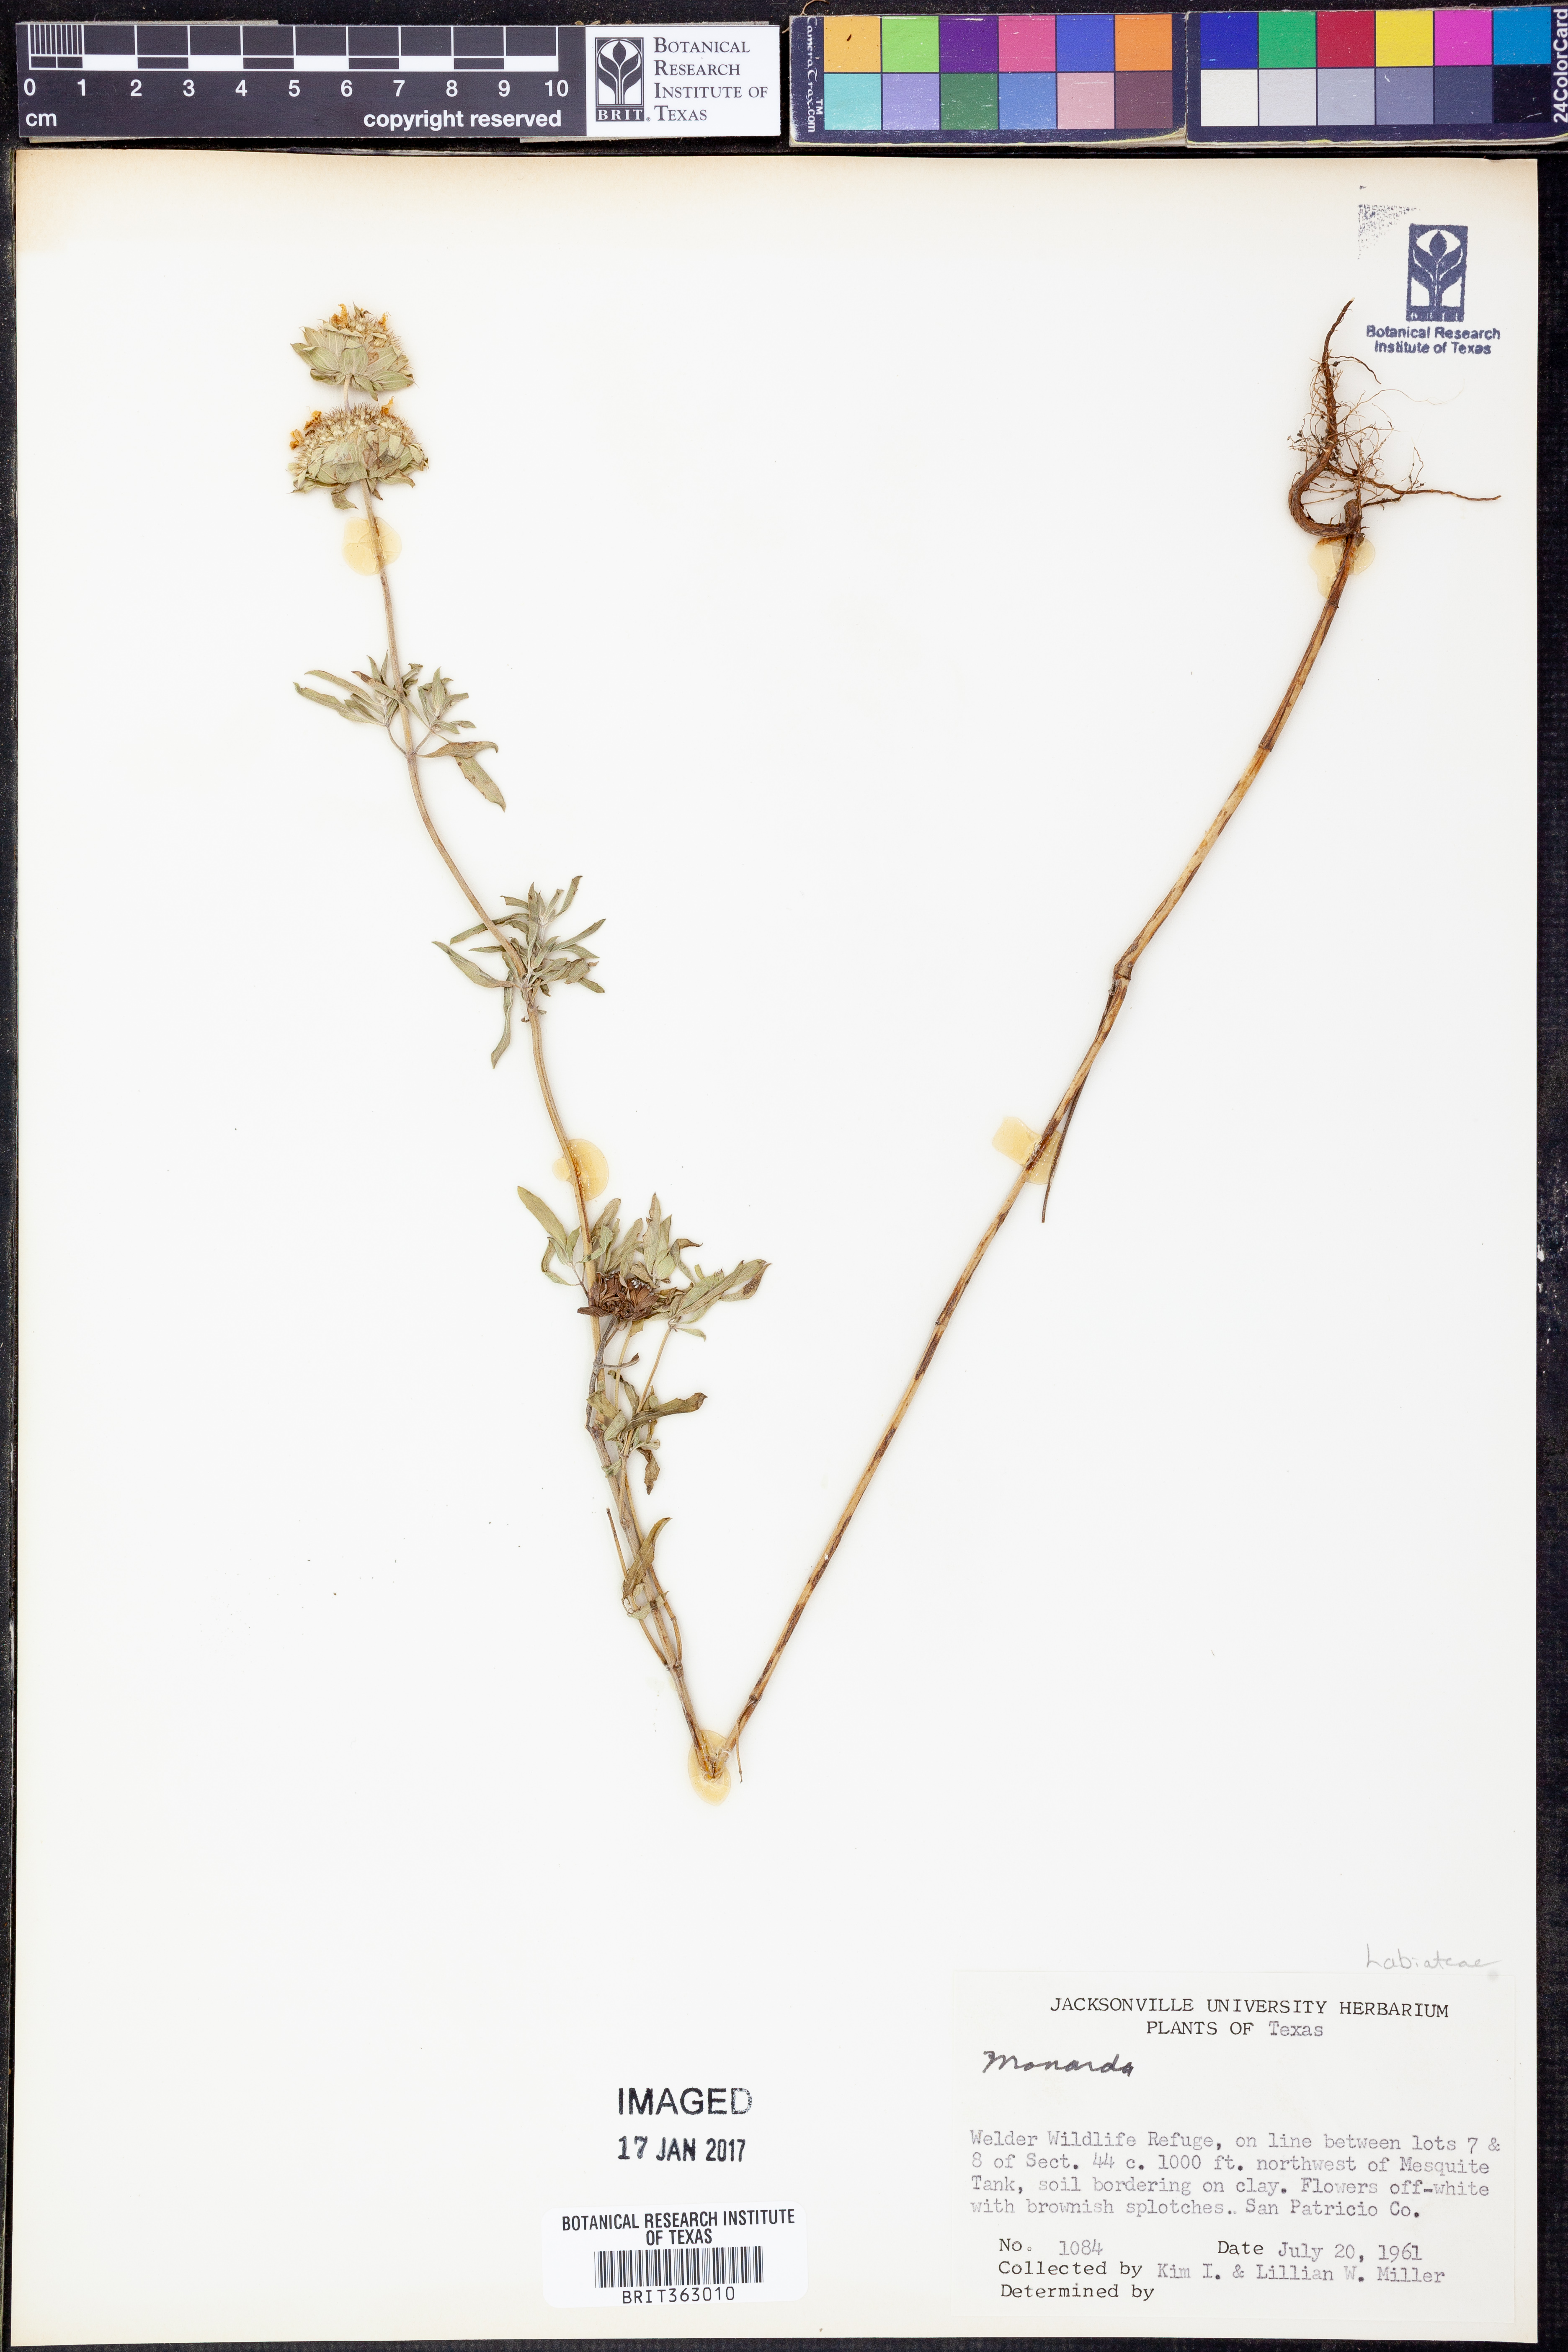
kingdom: Plantae
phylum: Tracheophyta
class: Magnoliopsida
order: Lamiales
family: Lamiaceae
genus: Monarda
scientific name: Monarda
